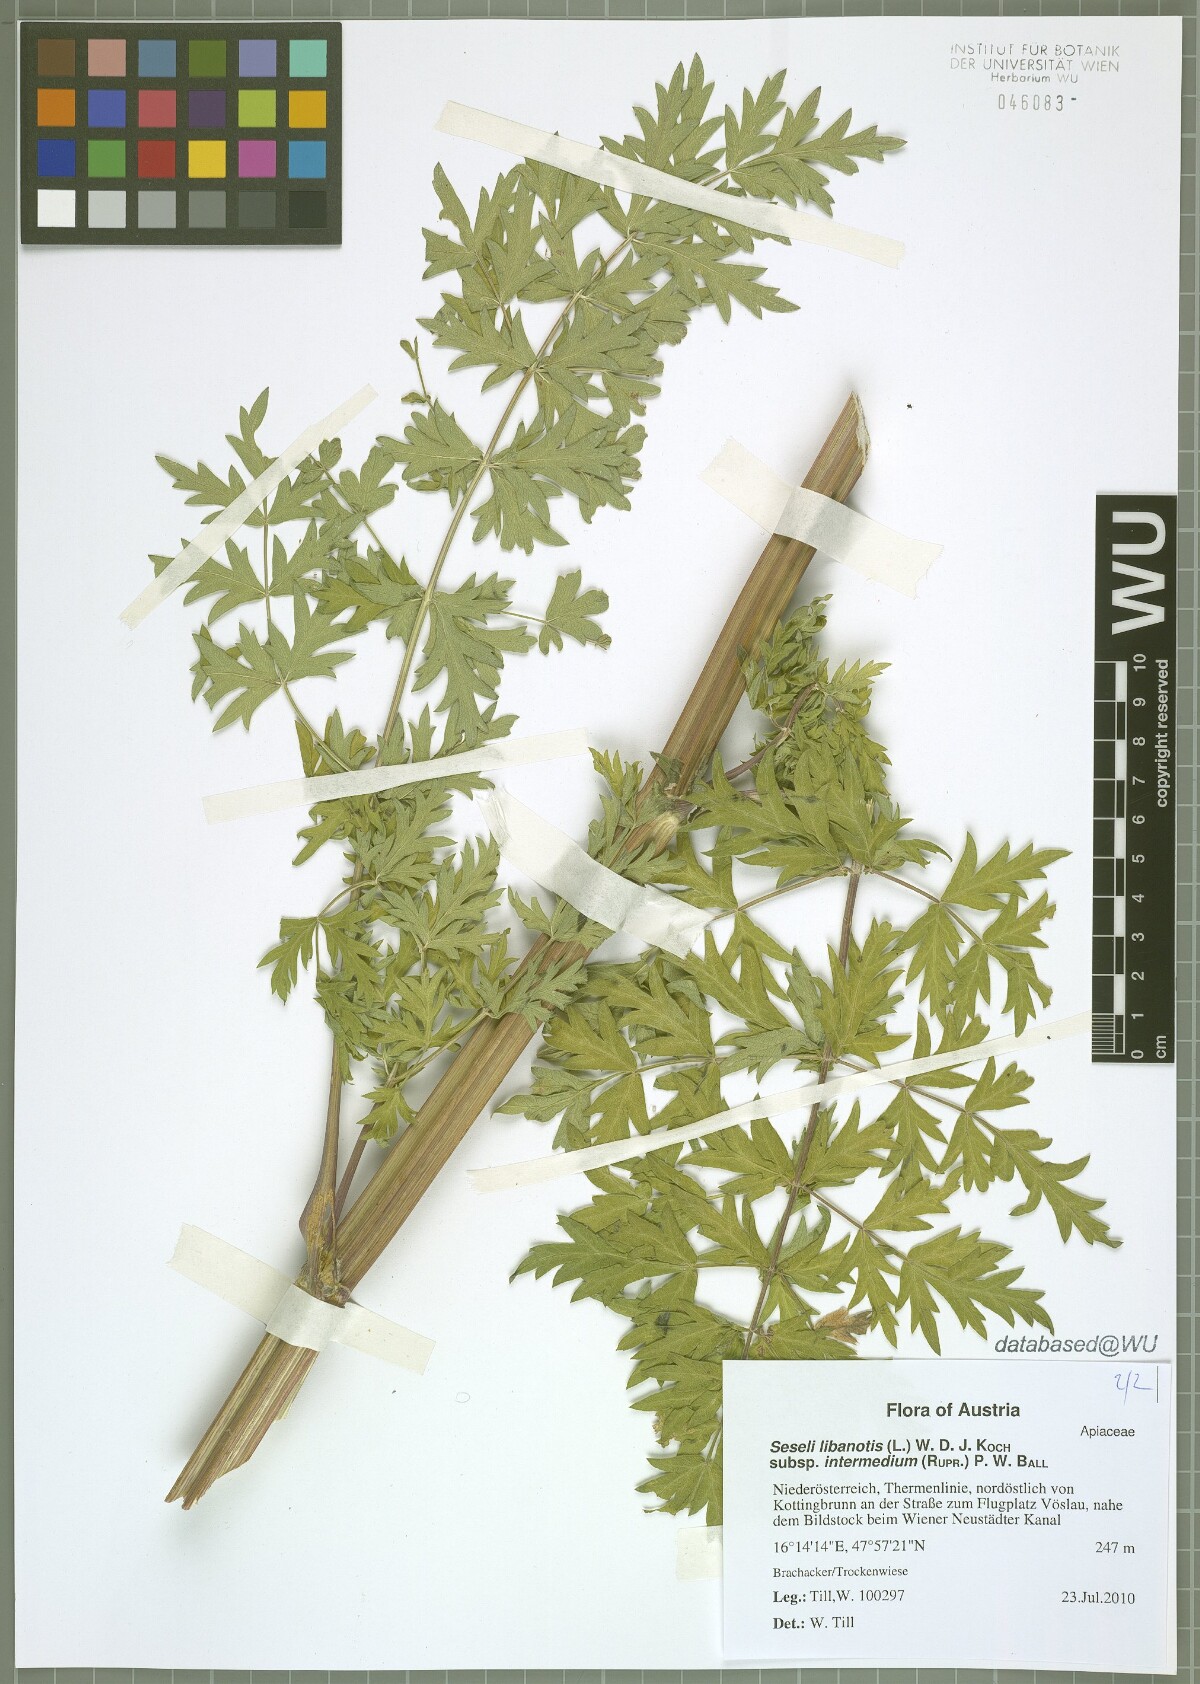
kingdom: Plantae
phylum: Tracheophyta
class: Magnoliopsida
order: Apiales
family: Apiaceae
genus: Seseli
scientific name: Seseli libanotis
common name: Mooncarrot
